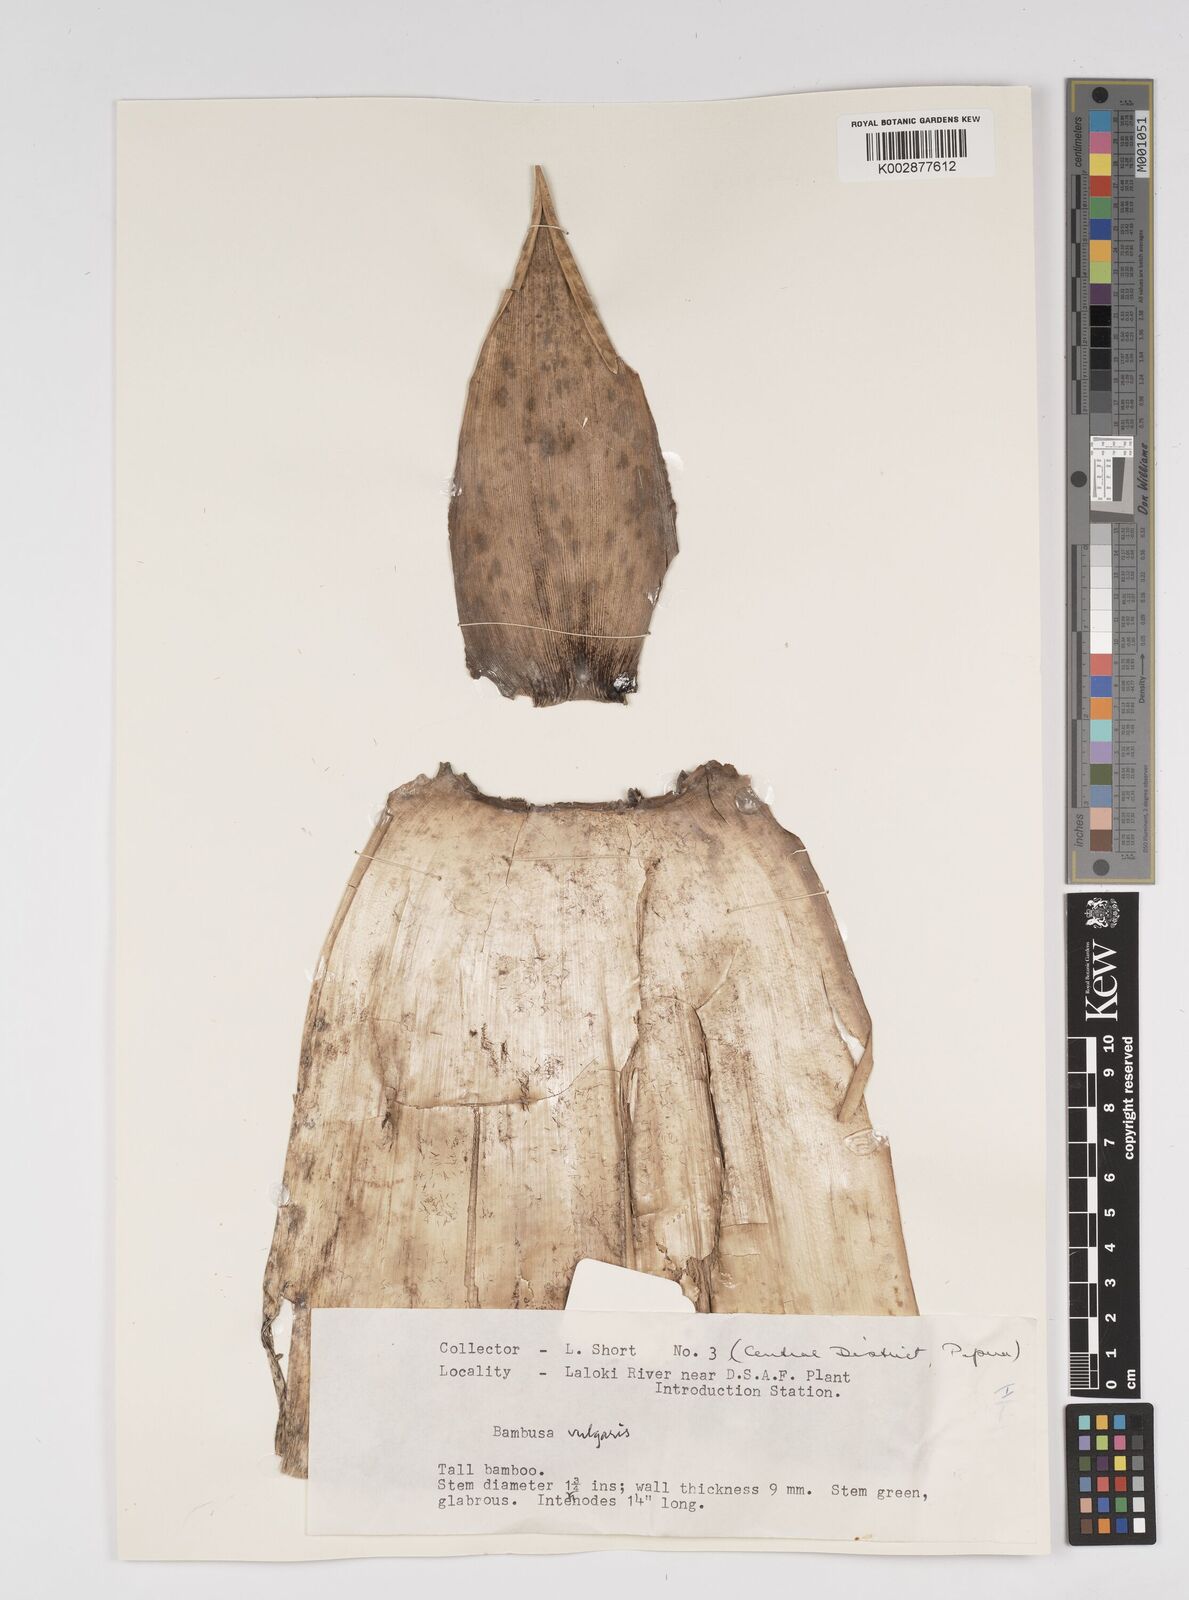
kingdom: Plantae
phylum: Tracheophyta
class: Liliopsida
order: Poales
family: Poaceae
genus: Bambusa
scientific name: Bambusa balcooa
